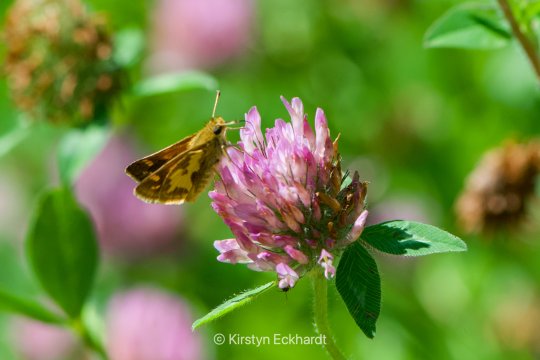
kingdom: Animalia
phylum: Arthropoda
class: Insecta
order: Lepidoptera
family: Hesperiidae
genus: Polites
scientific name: Polites coras
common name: Peck's Skipper
